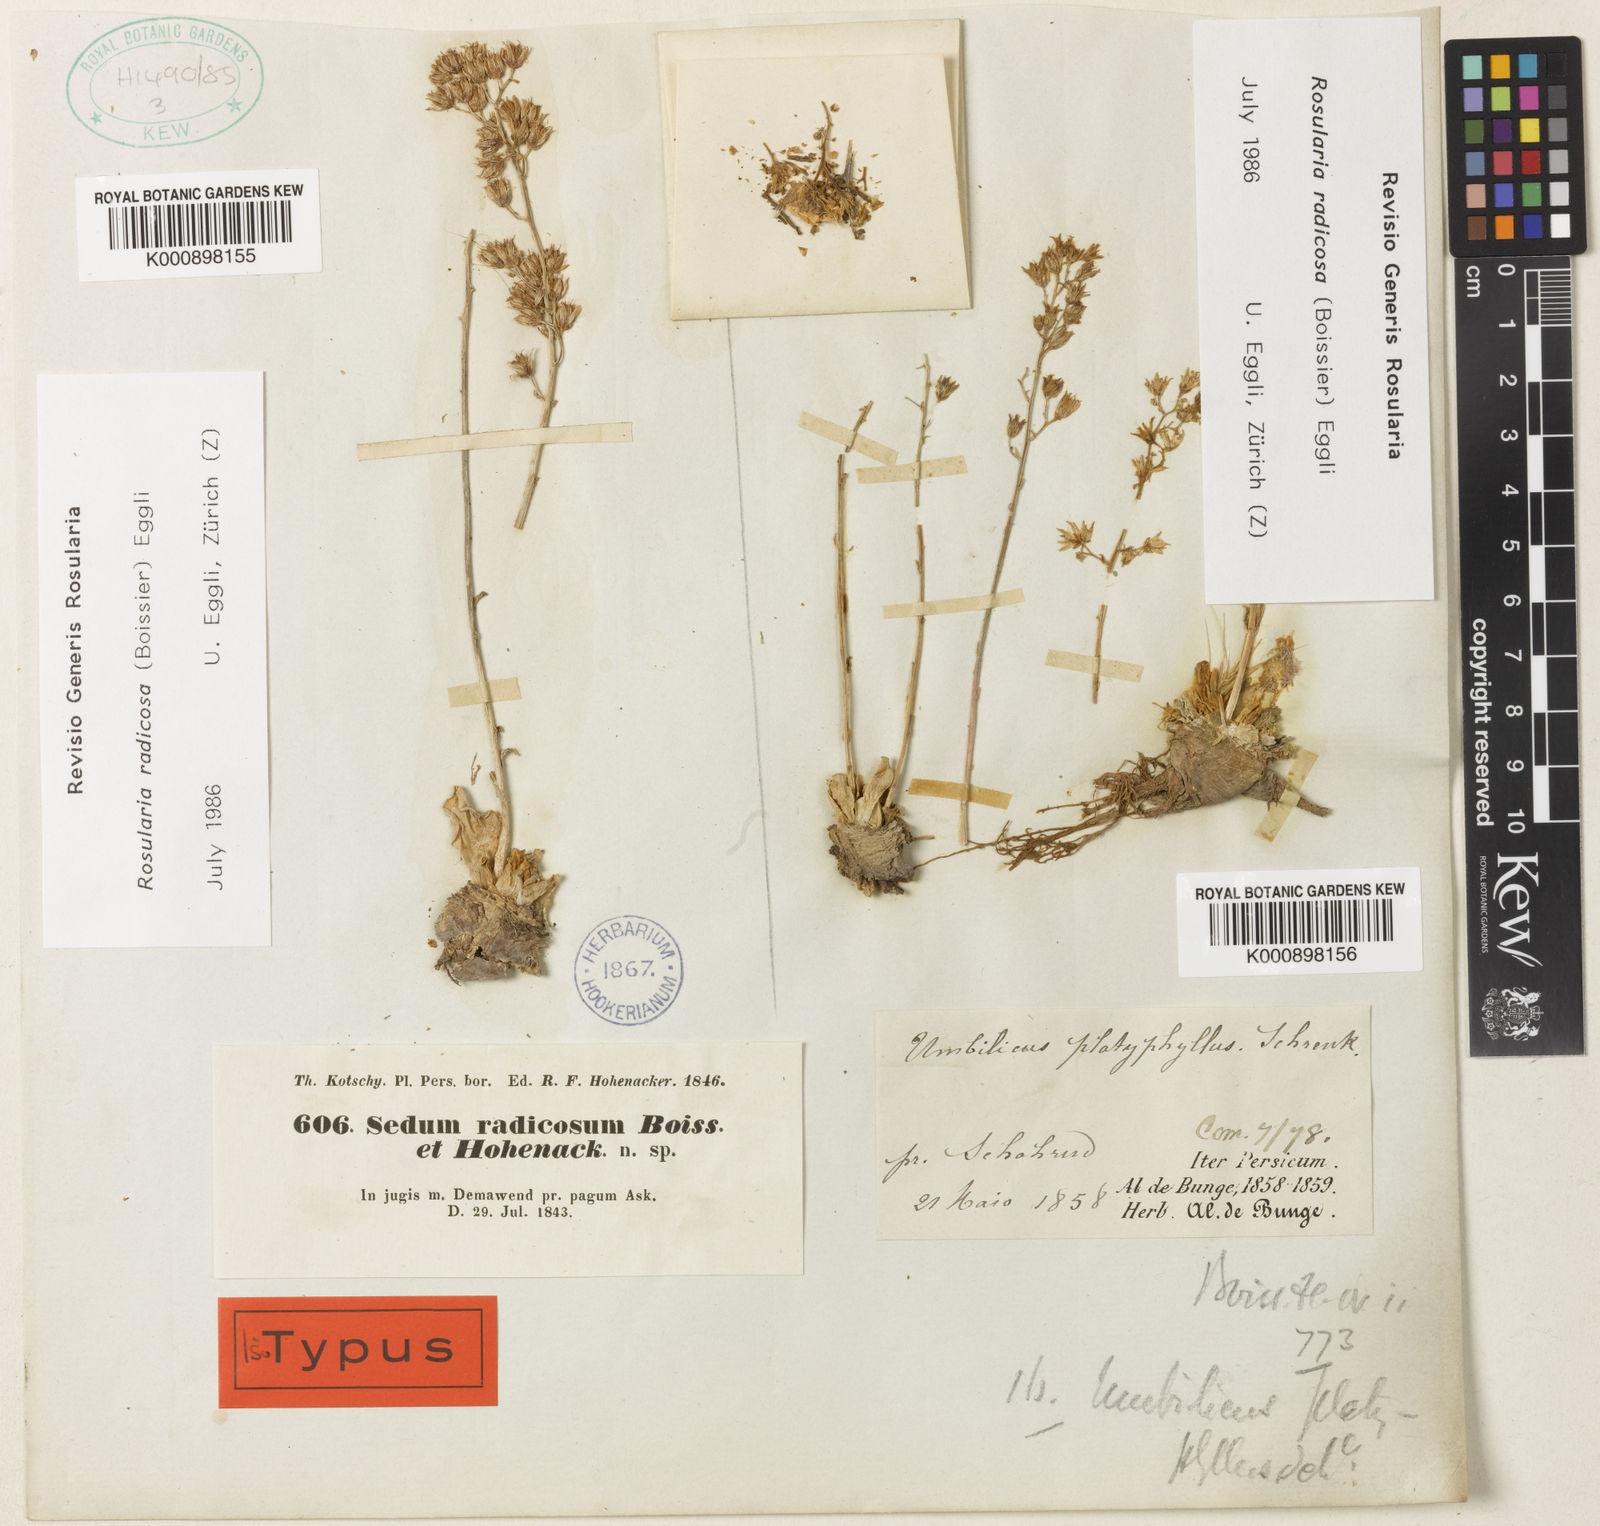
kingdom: Plantae
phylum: Tracheophyta
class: Magnoliopsida
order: Saxifragales
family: Crassulaceae
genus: Rosularia
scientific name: Rosularia radicosa
